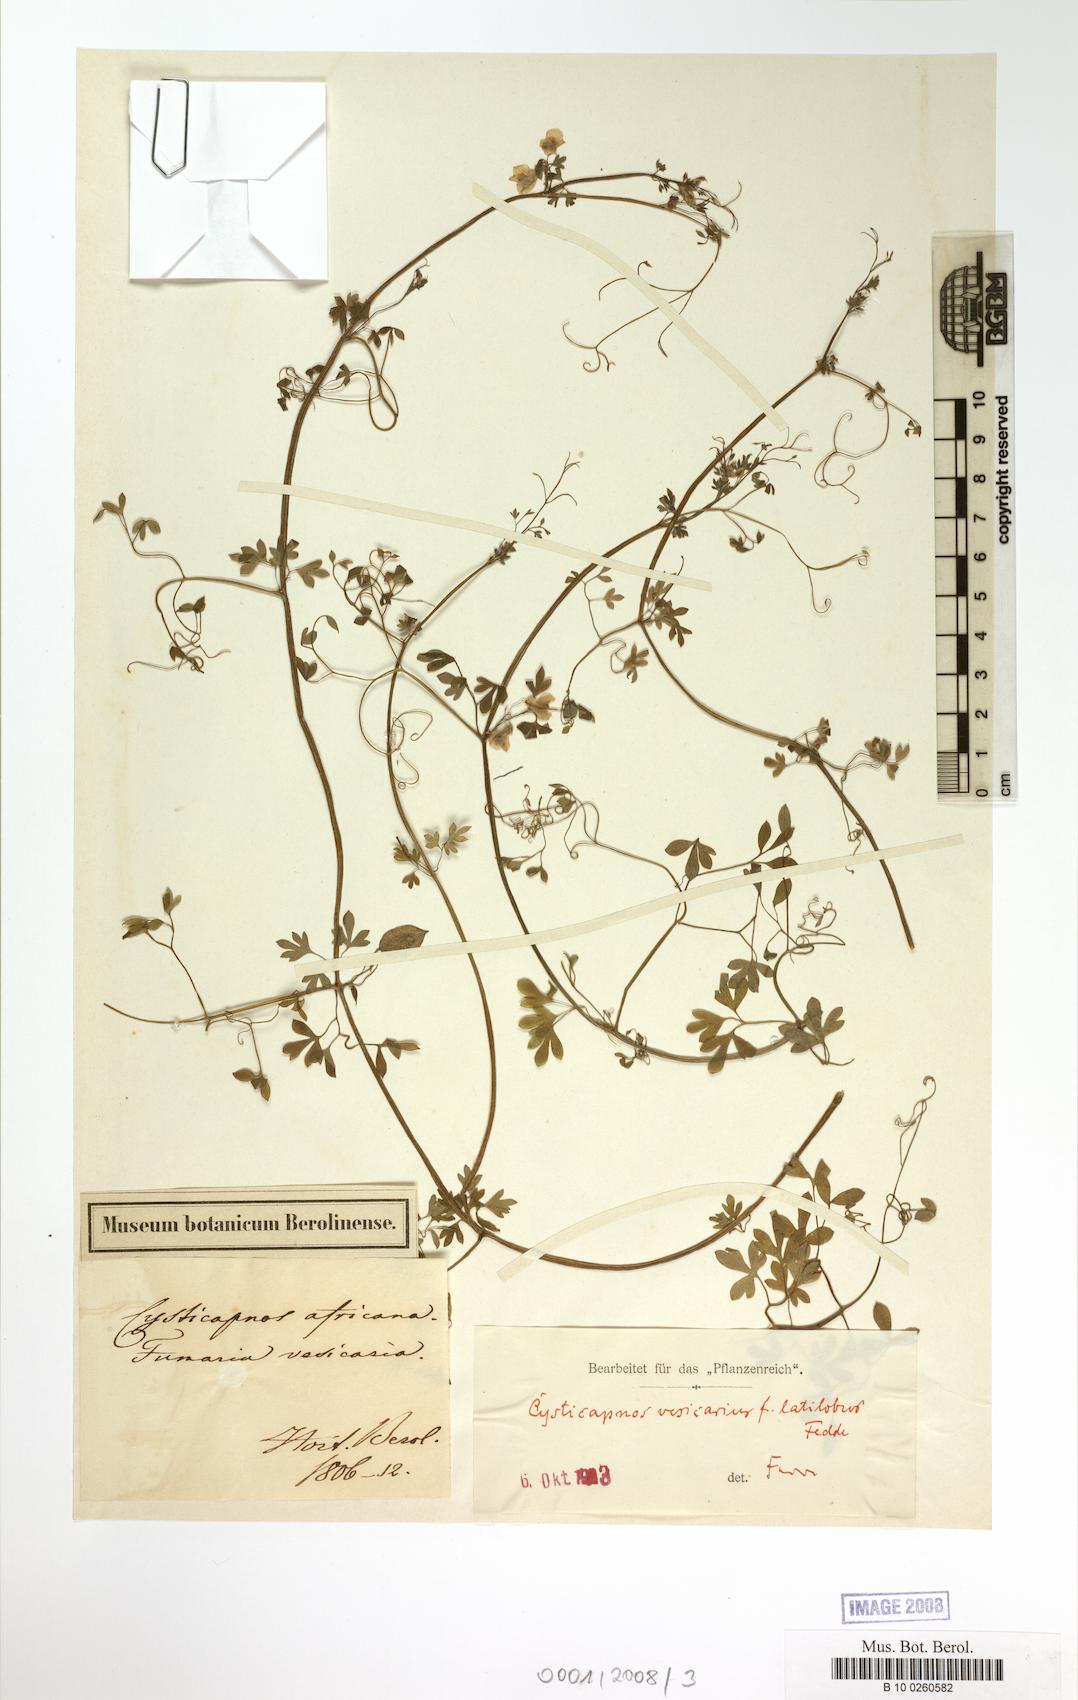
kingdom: Plantae
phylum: Tracheophyta
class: Magnoliopsida
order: Ranunculales
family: Papaveraceae
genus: Cysticapnos
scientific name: Cysticapnos
